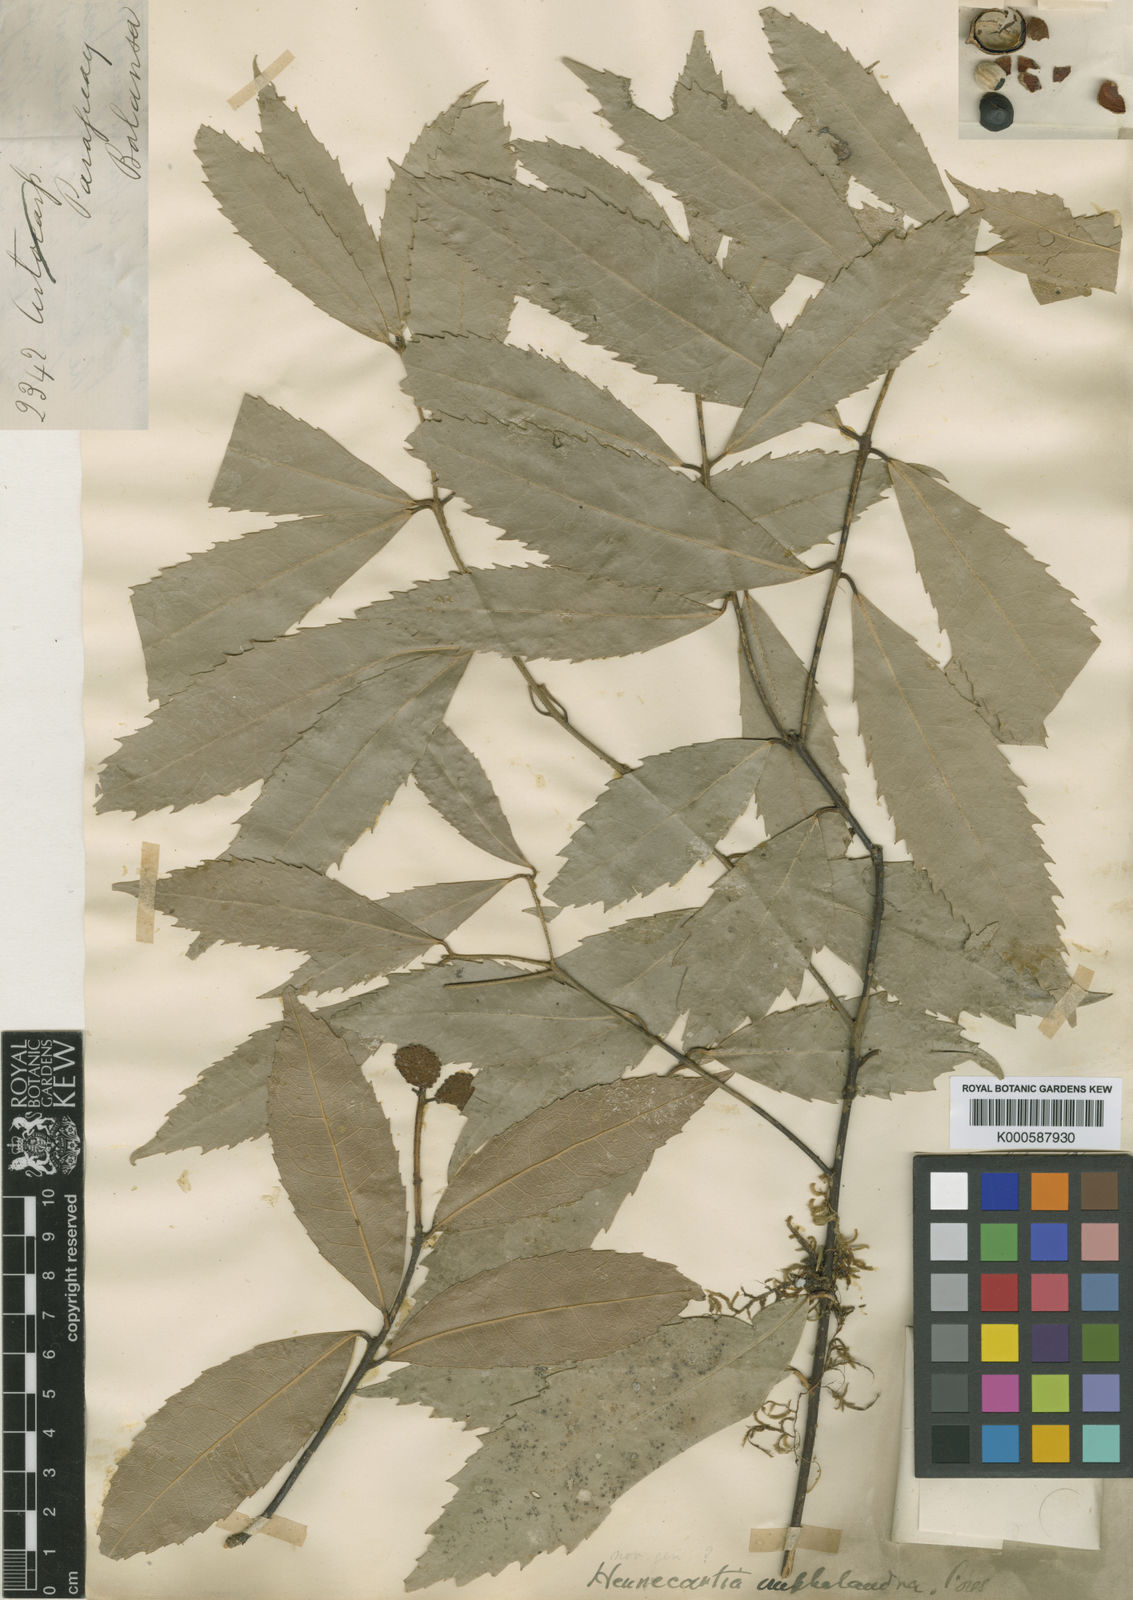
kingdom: Plantae
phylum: Tracheophyta
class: Magnoliopsida
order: Laurales
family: Monimiaceae
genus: Hennecartia
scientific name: Hennecartia omphalandra
